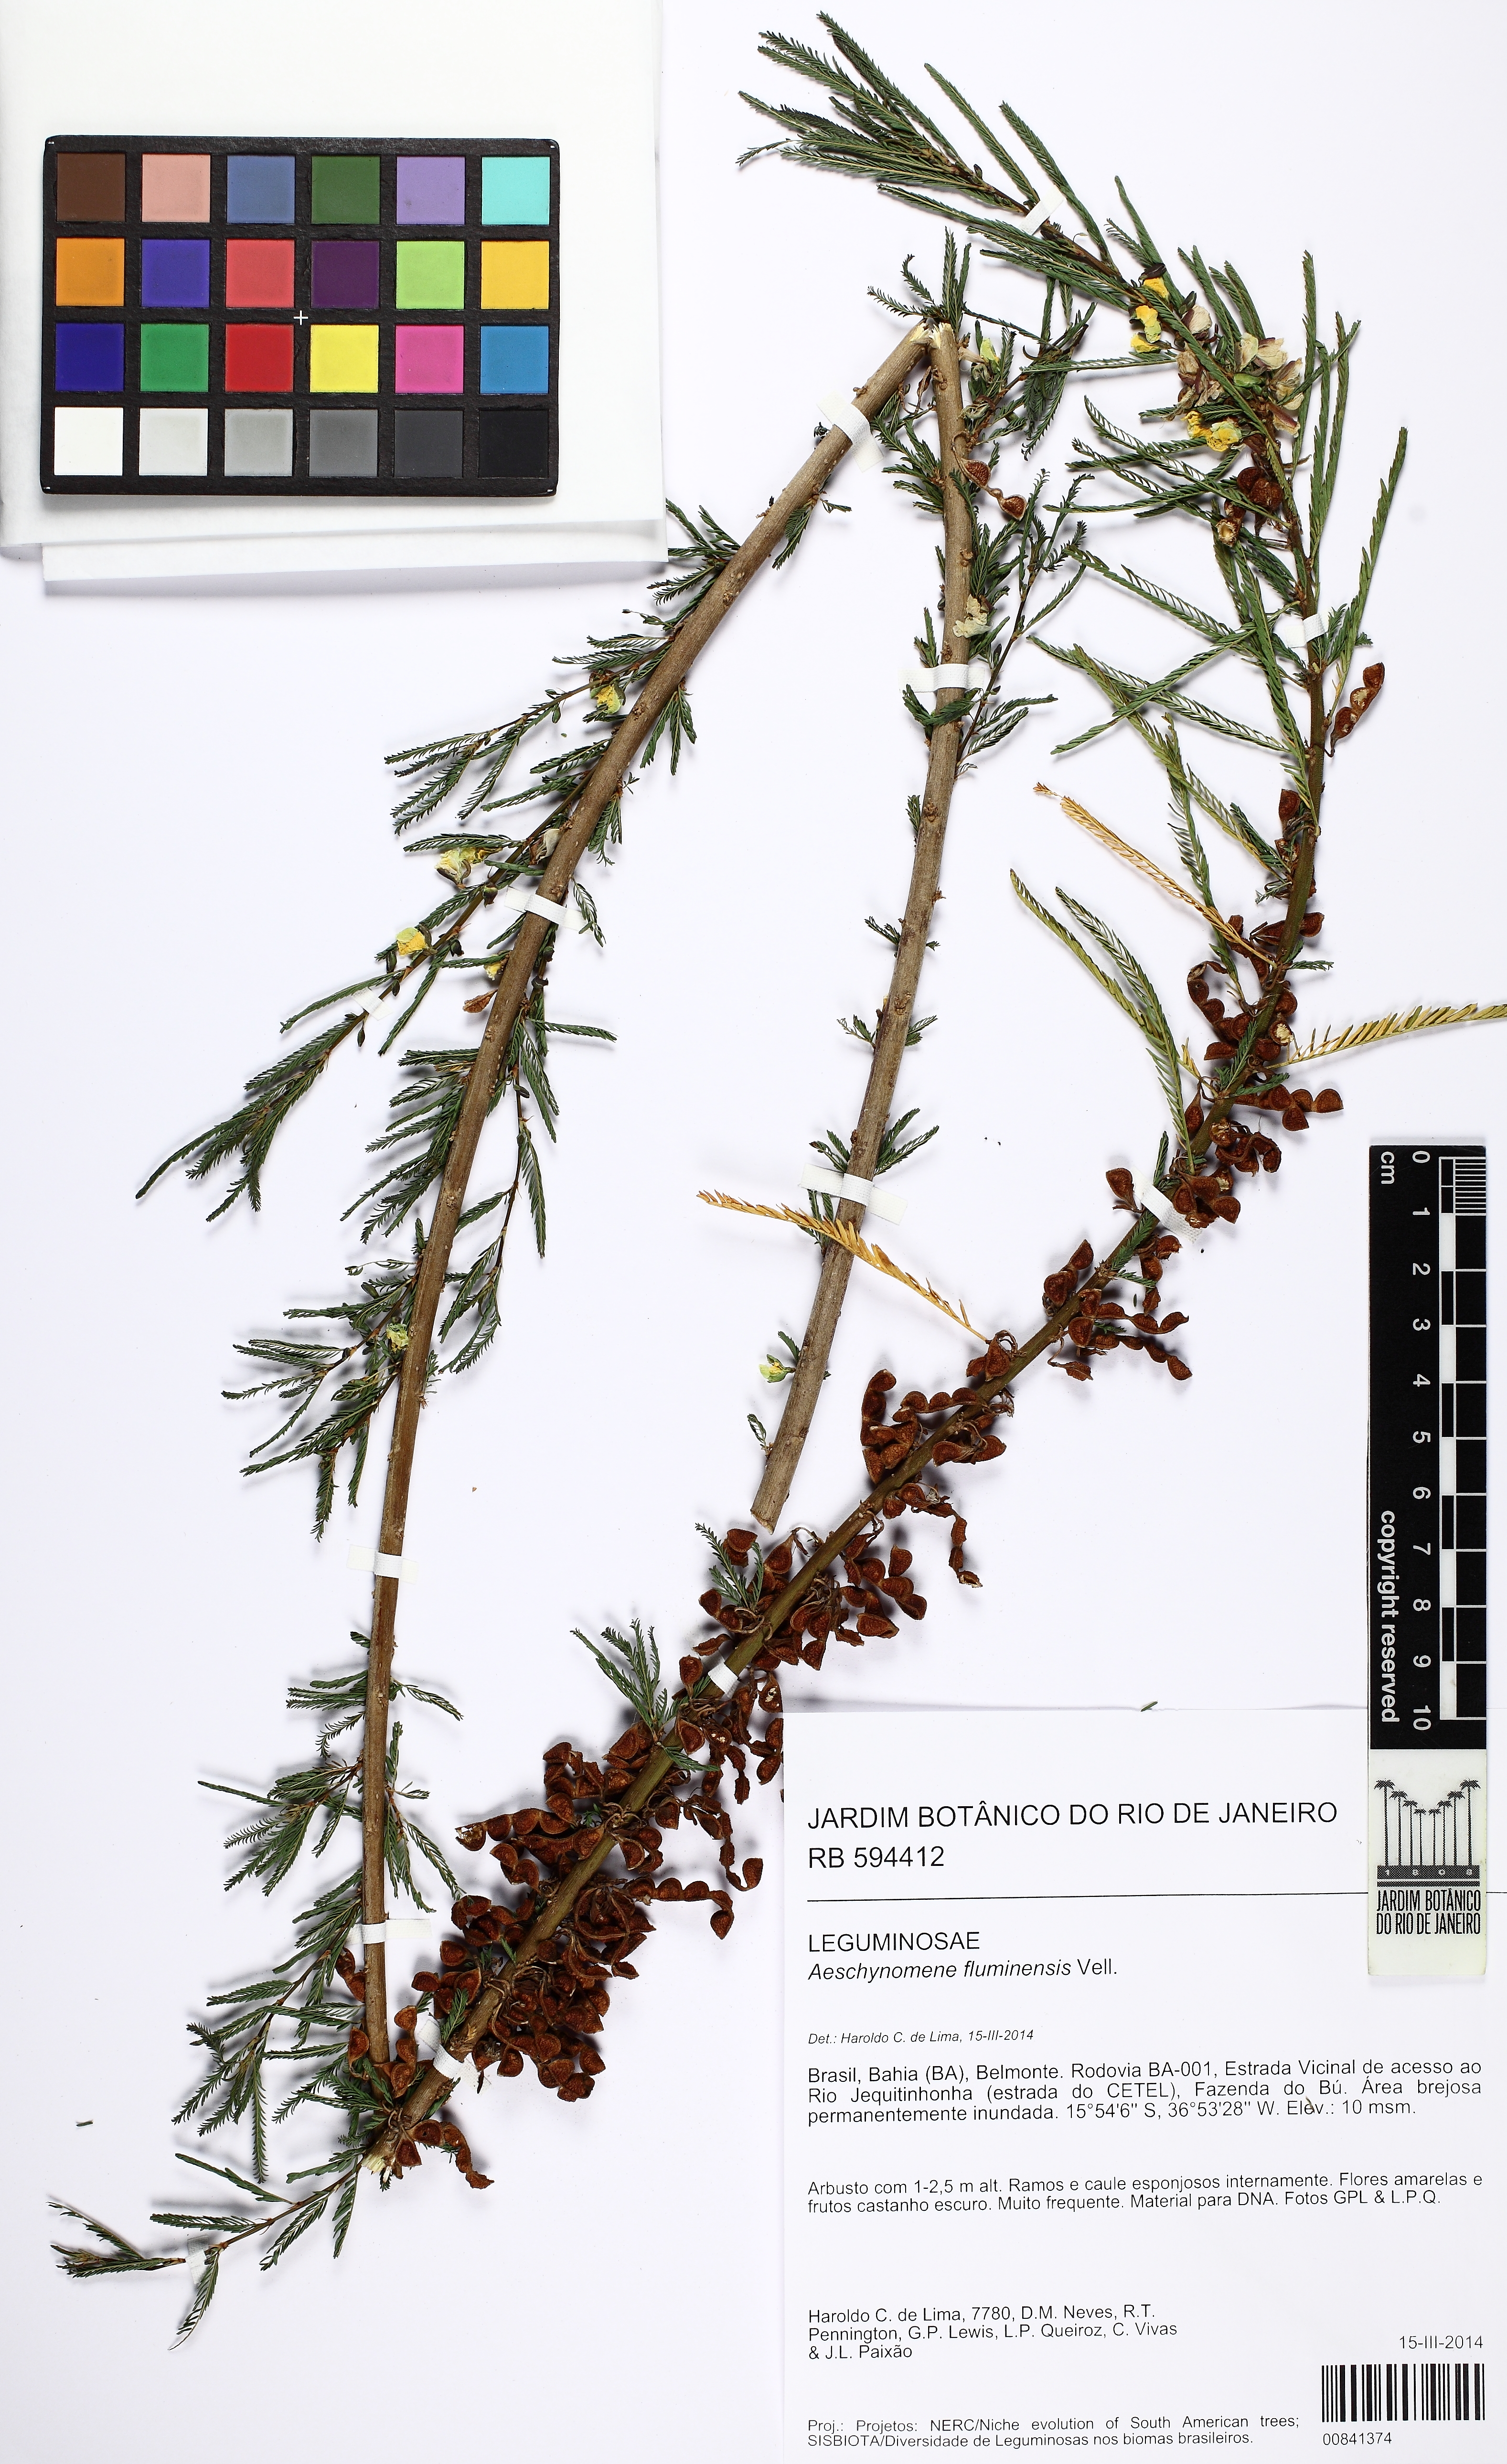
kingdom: Plantae
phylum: Tracheophyta
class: Magnoliopsida
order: Fabales
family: Fabaceae
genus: Aeschynomene
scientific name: Aeschynomene fluminensis
